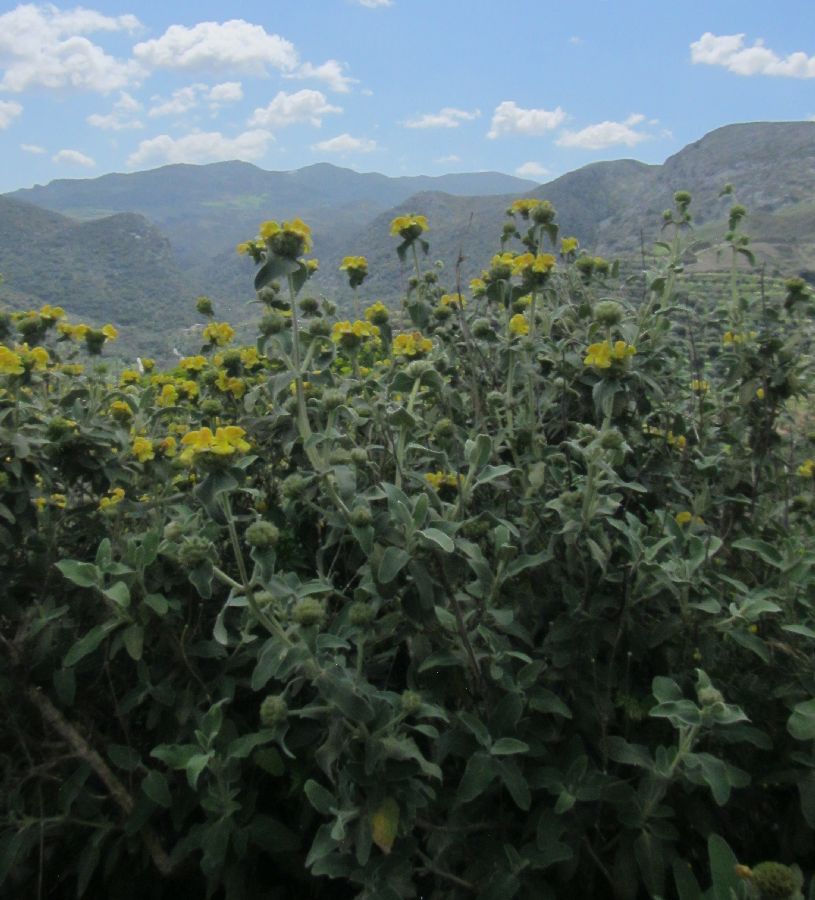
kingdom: Plantae
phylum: Tracheophyta
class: Magnoliopsida
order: Lamiales
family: Lamiaceae
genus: Phlomis
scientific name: Phlomis cretica
